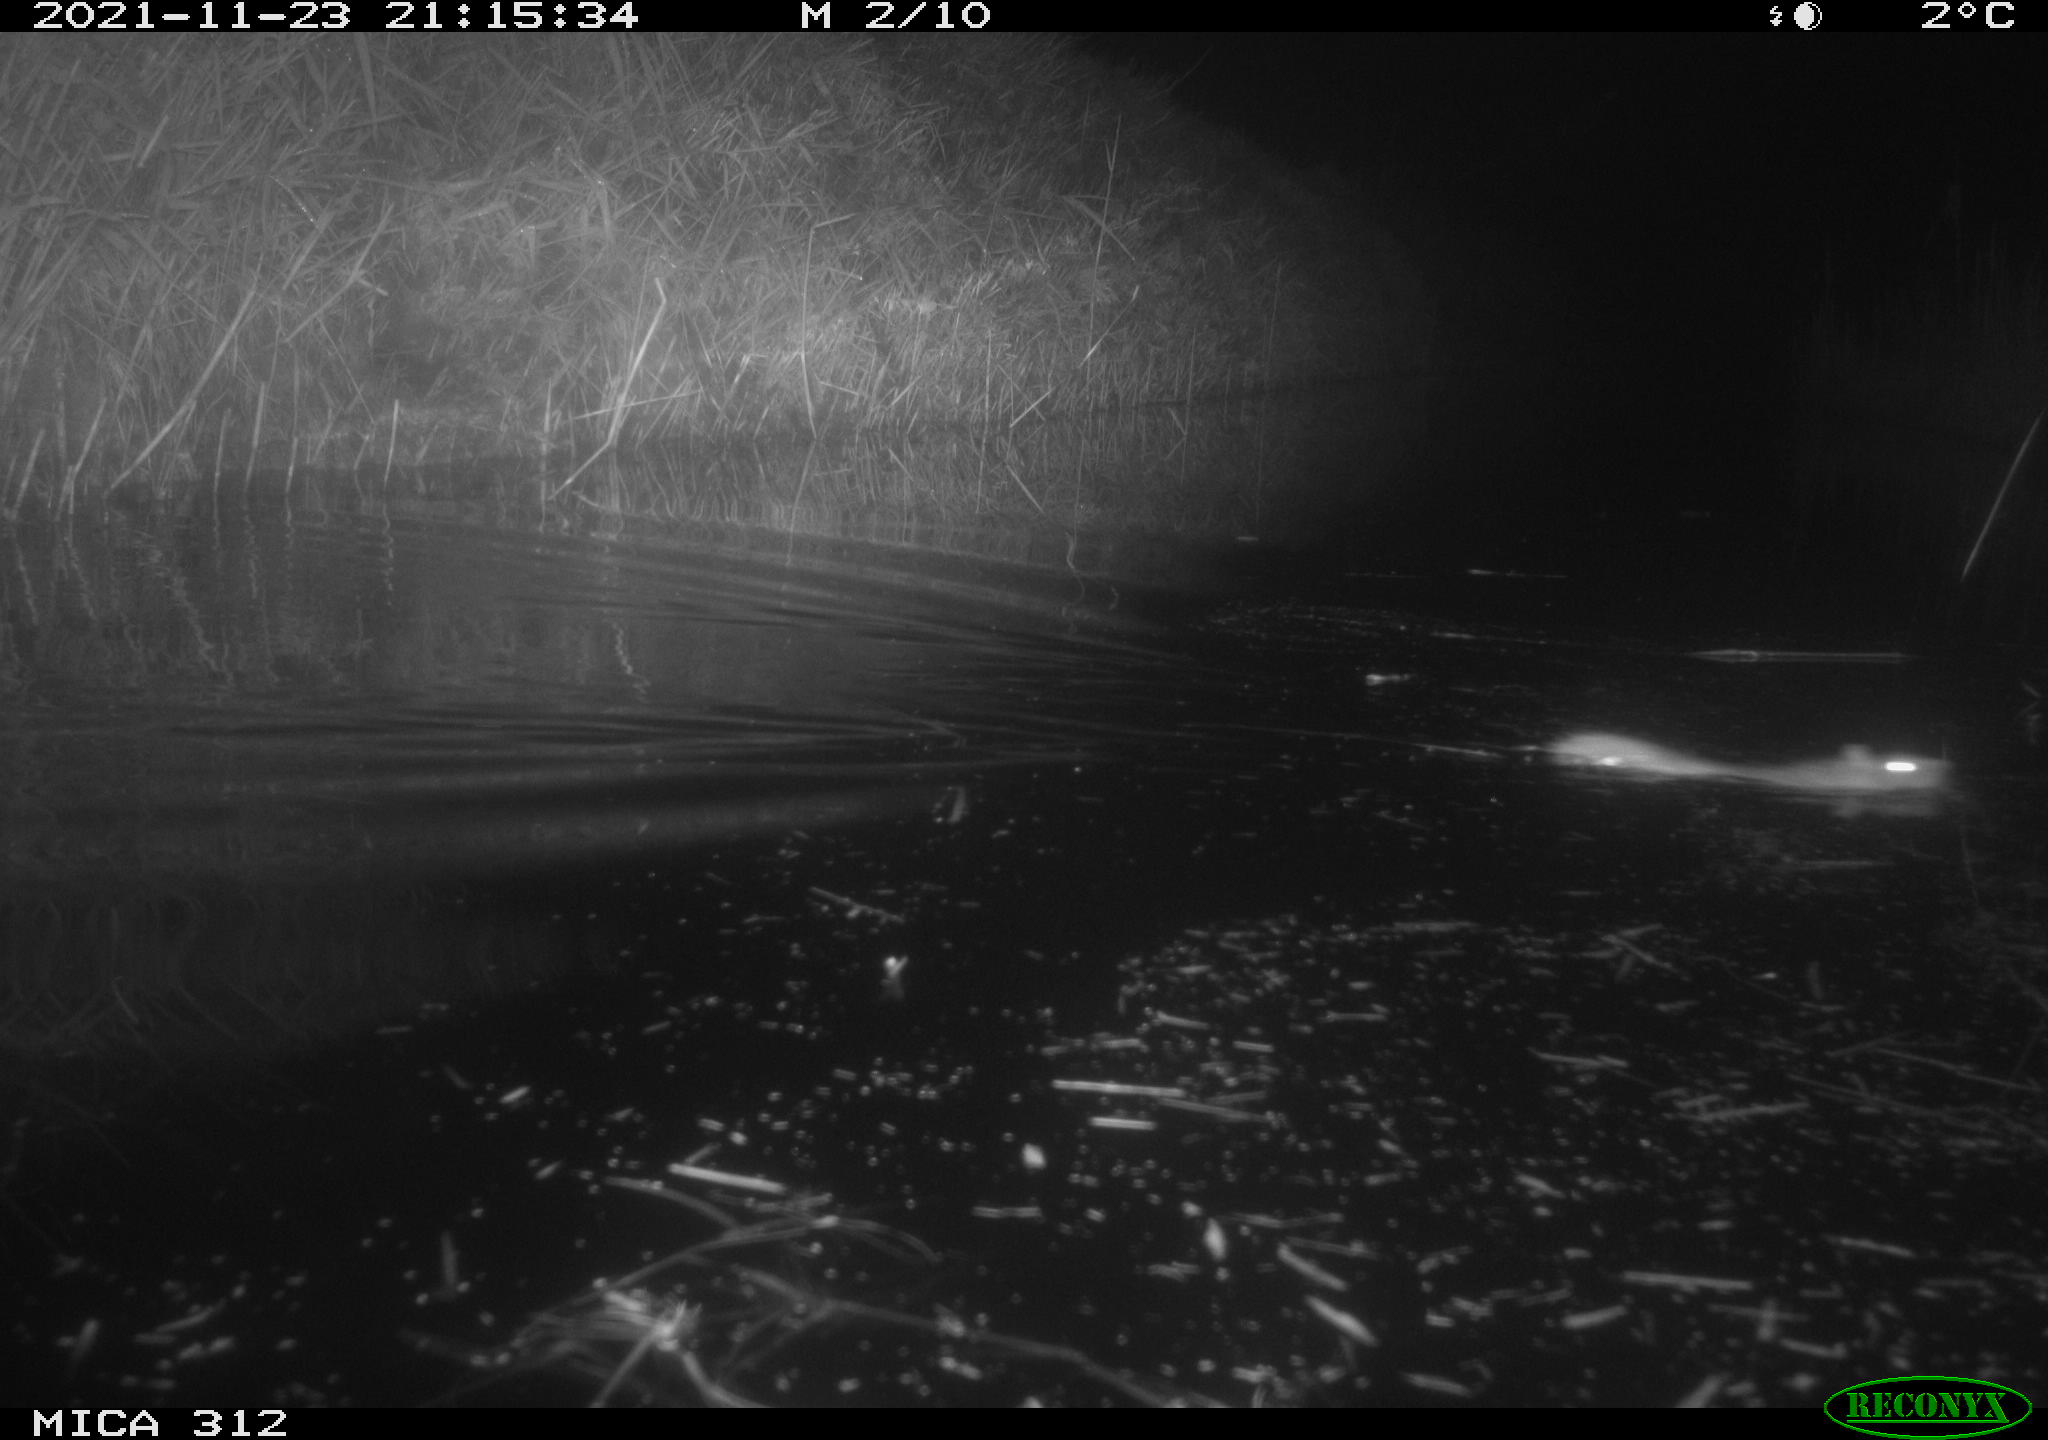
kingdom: Animalia
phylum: Chordata
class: Mammalia
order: Rodentia
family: Muridae
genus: Rattus
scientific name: Rattus norvegicus
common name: Brown rat
